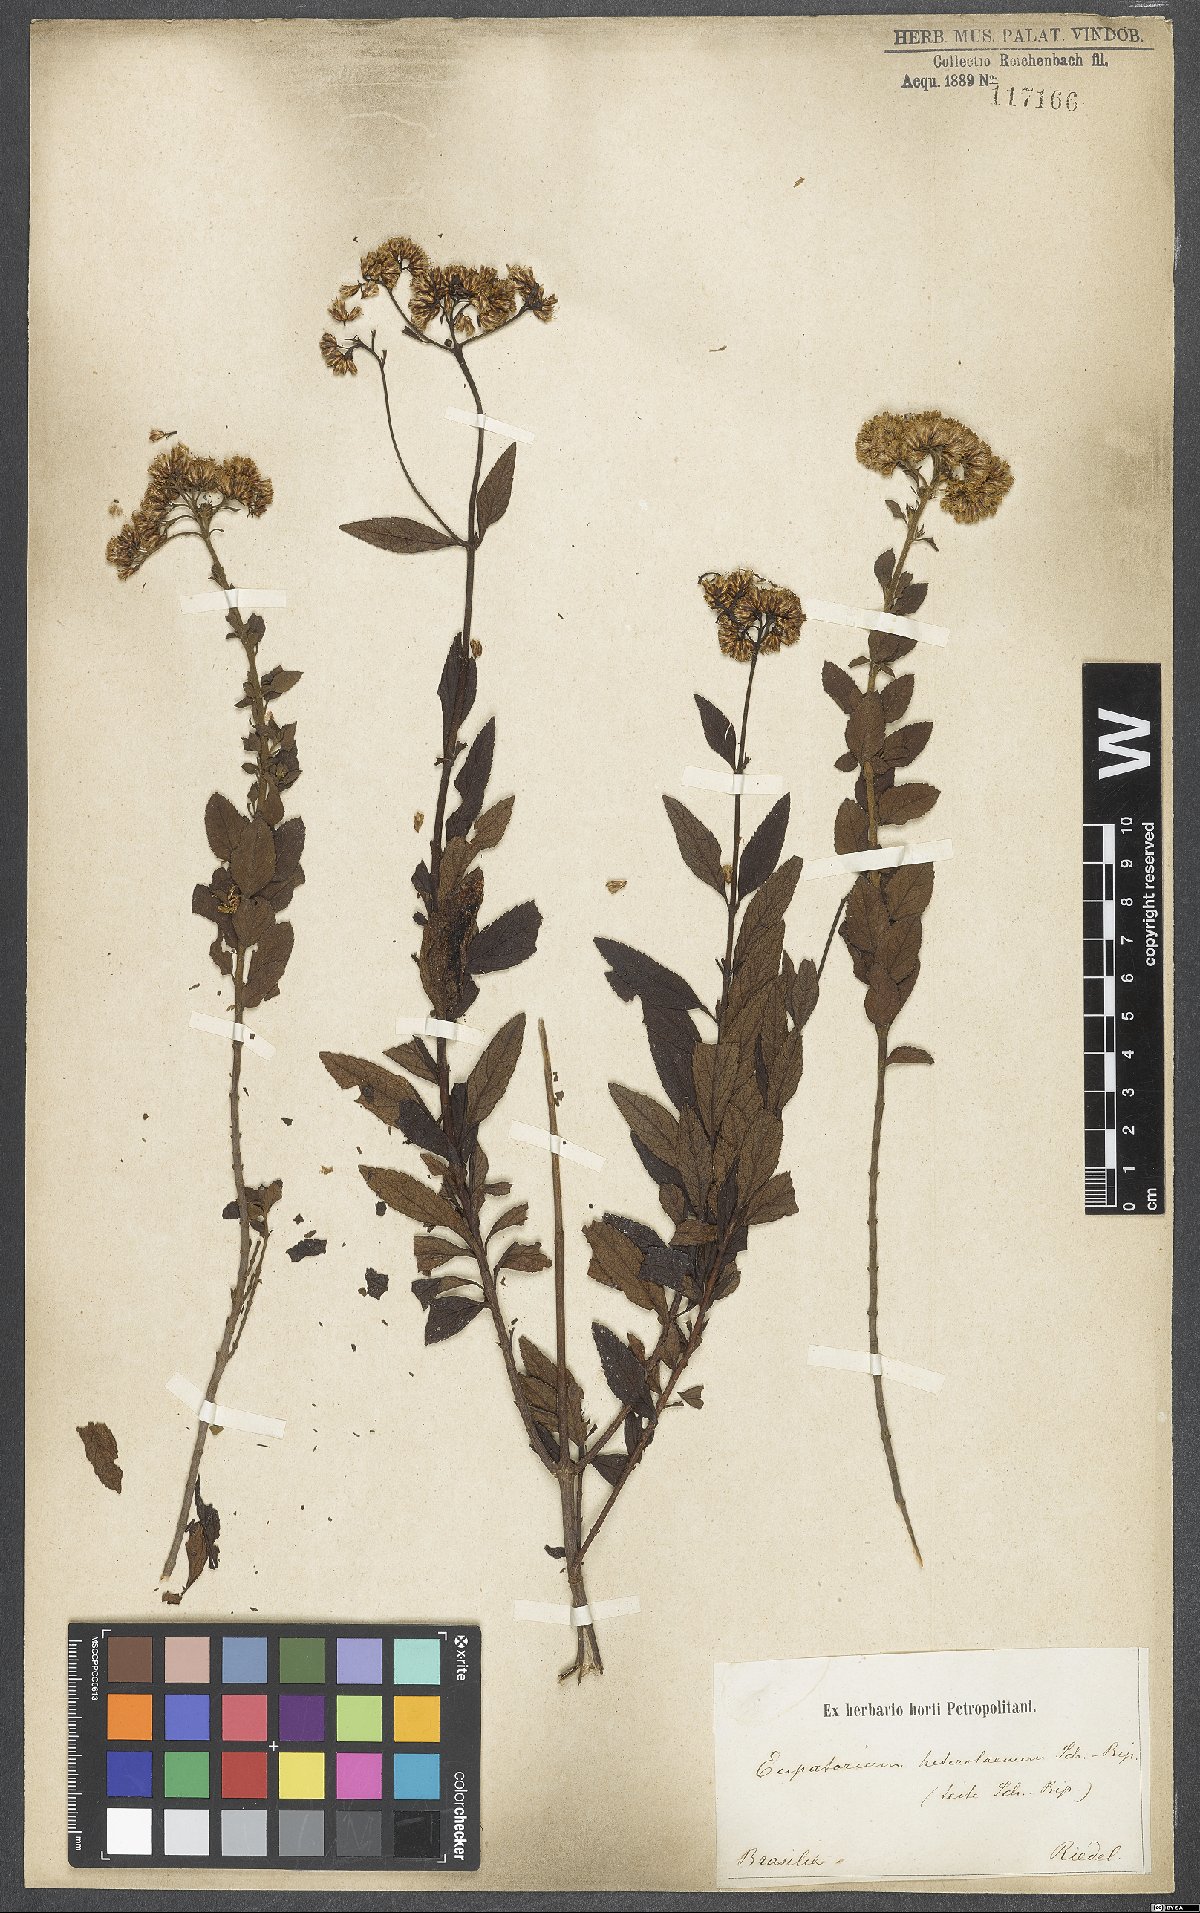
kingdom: Plantae
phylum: Tracheophyta
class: Magnoliopsida
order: Asterales
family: Asteraceae
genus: Grazielia
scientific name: Grazielia serrata
